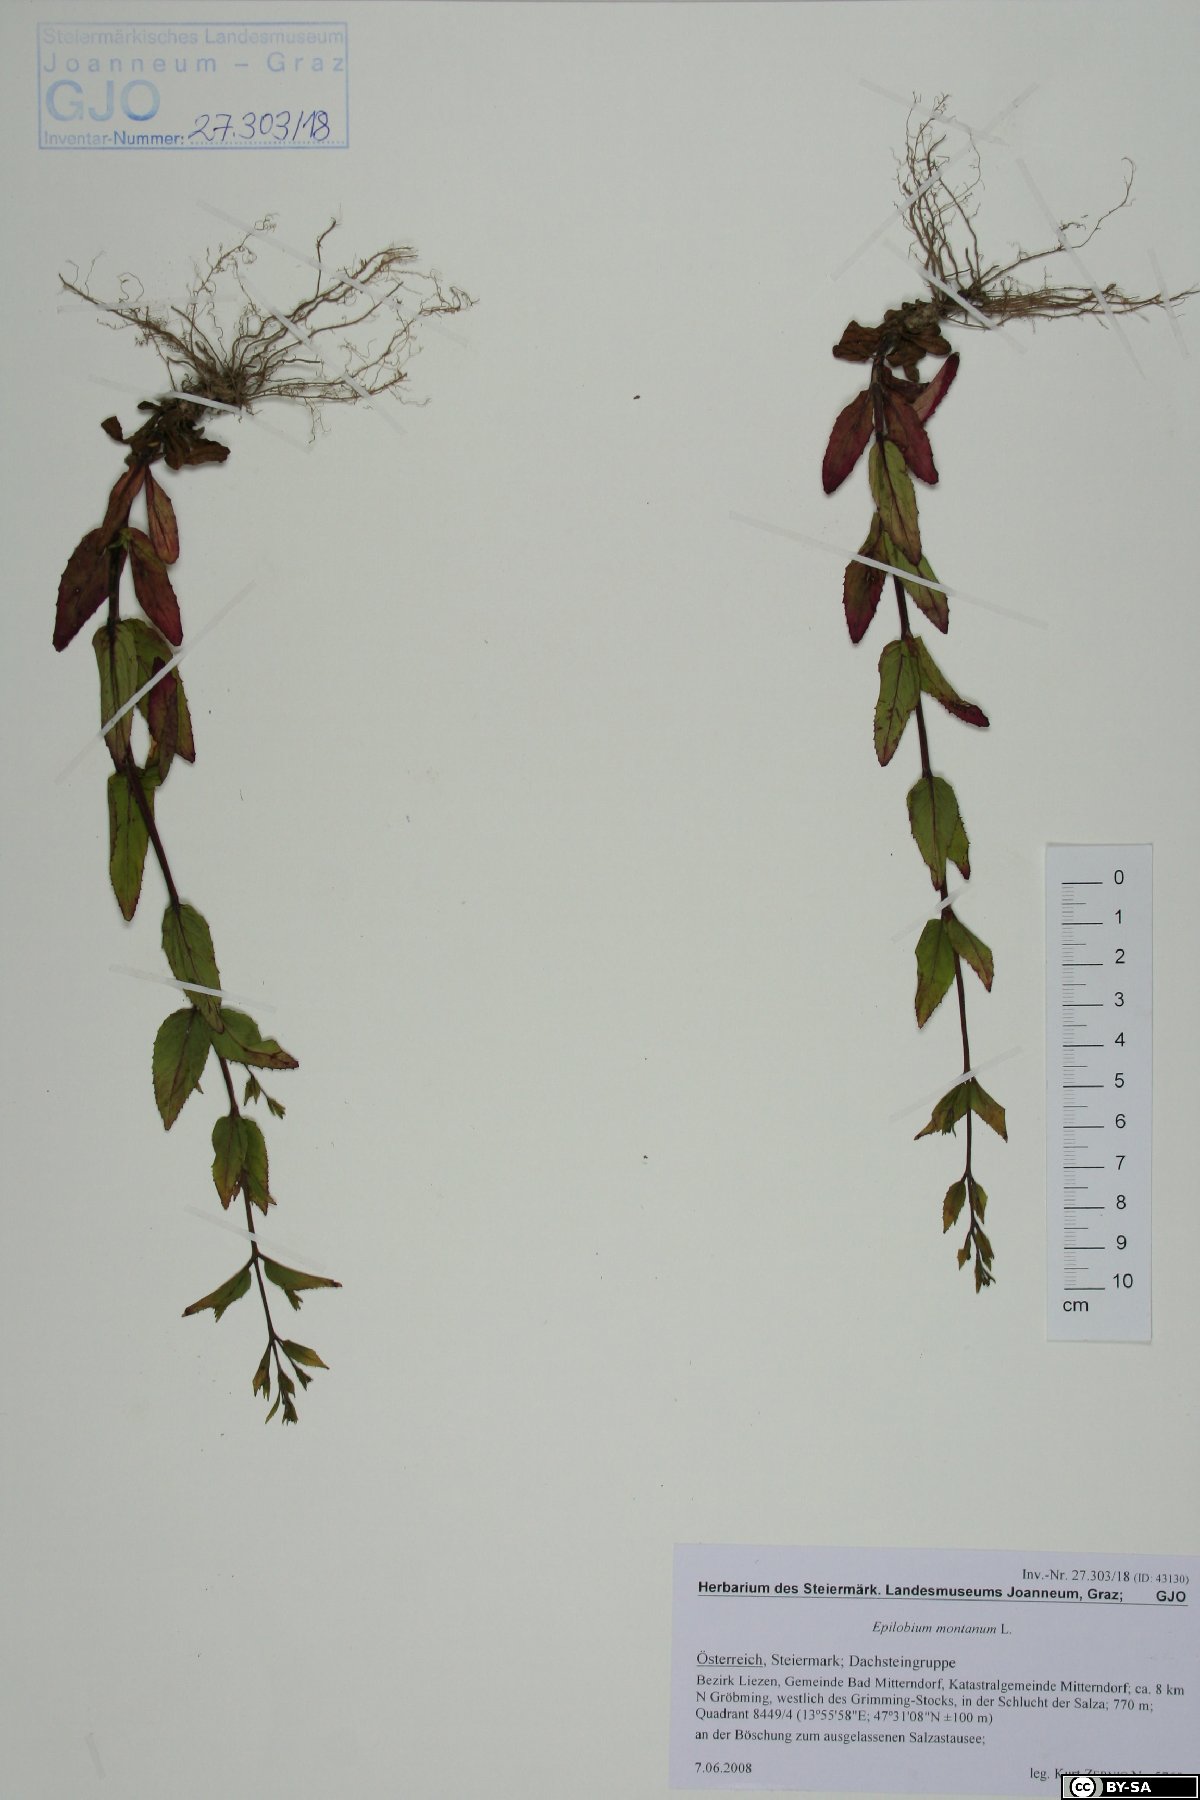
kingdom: Plantae
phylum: Tracheophyta
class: Magnoliopsida
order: Myrtales
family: Onagraceae
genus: Epilobium
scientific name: Epilobium montanum
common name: Broad-leaved willowherb
